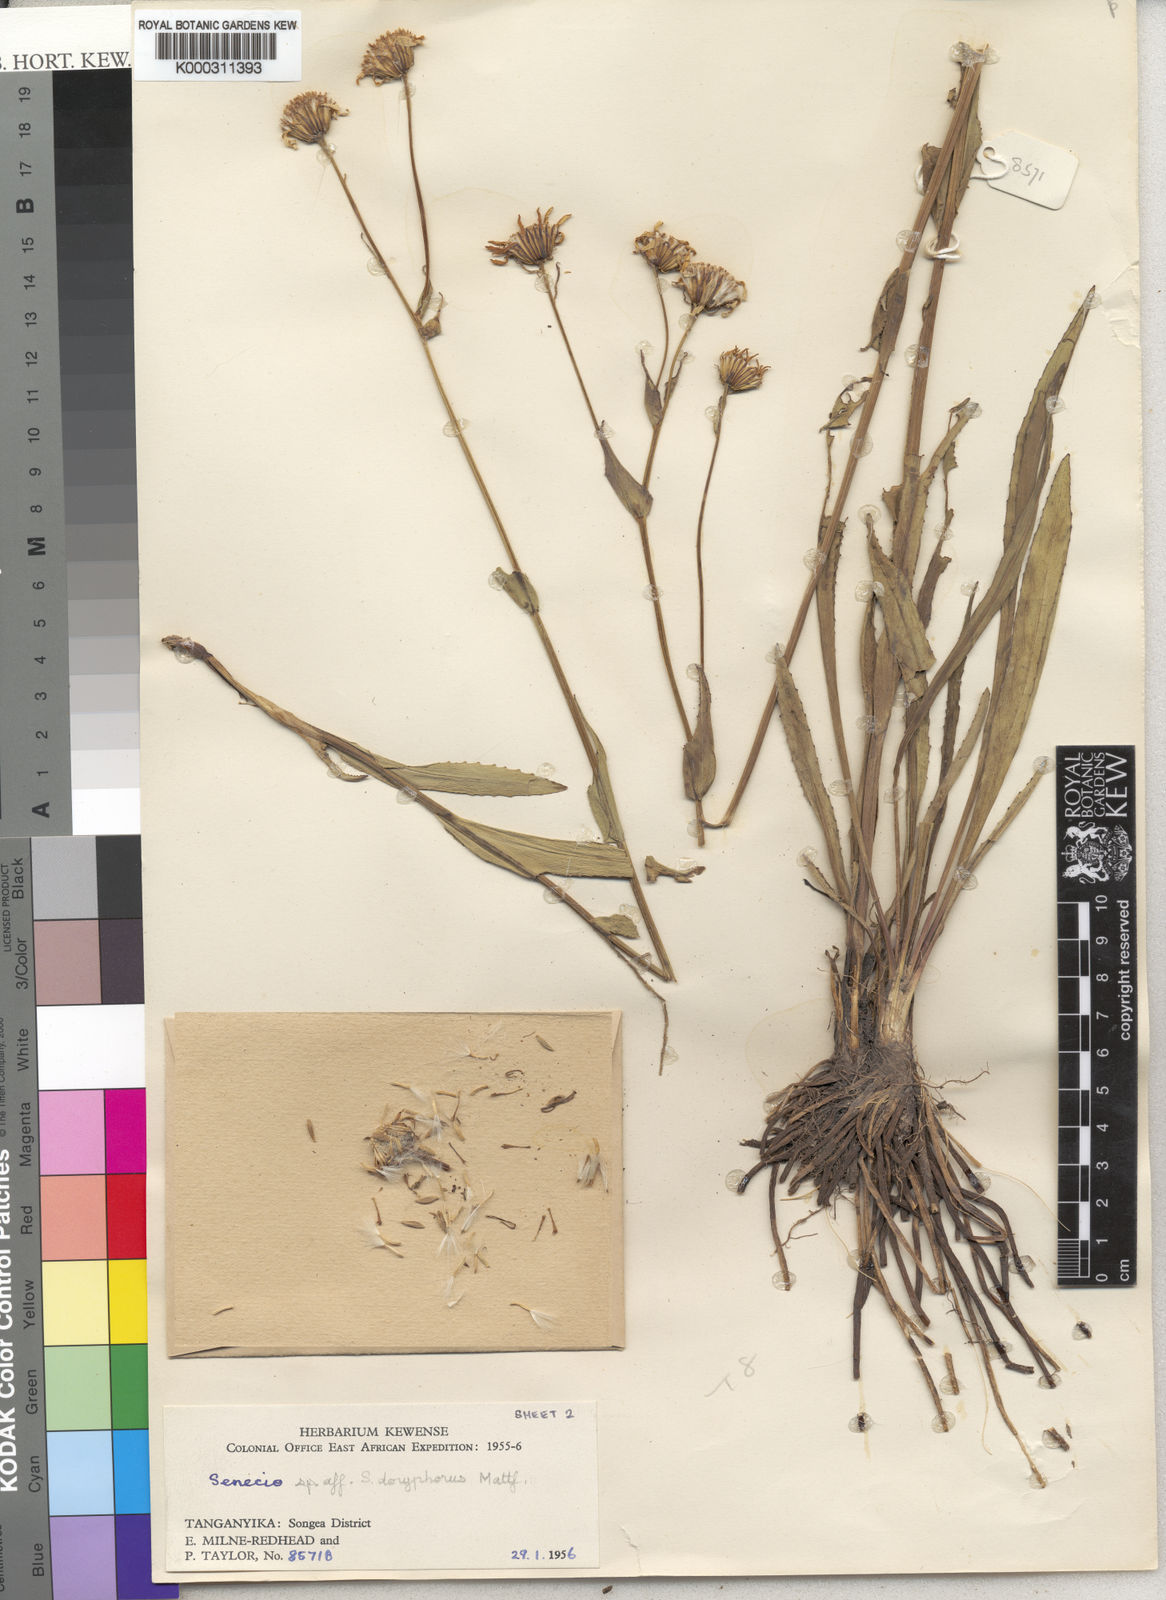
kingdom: Plantae
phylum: Tracheophyta
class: Magnoliopsida
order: Asterales
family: Asteraceae
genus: Senecio
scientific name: Senecio sororius
